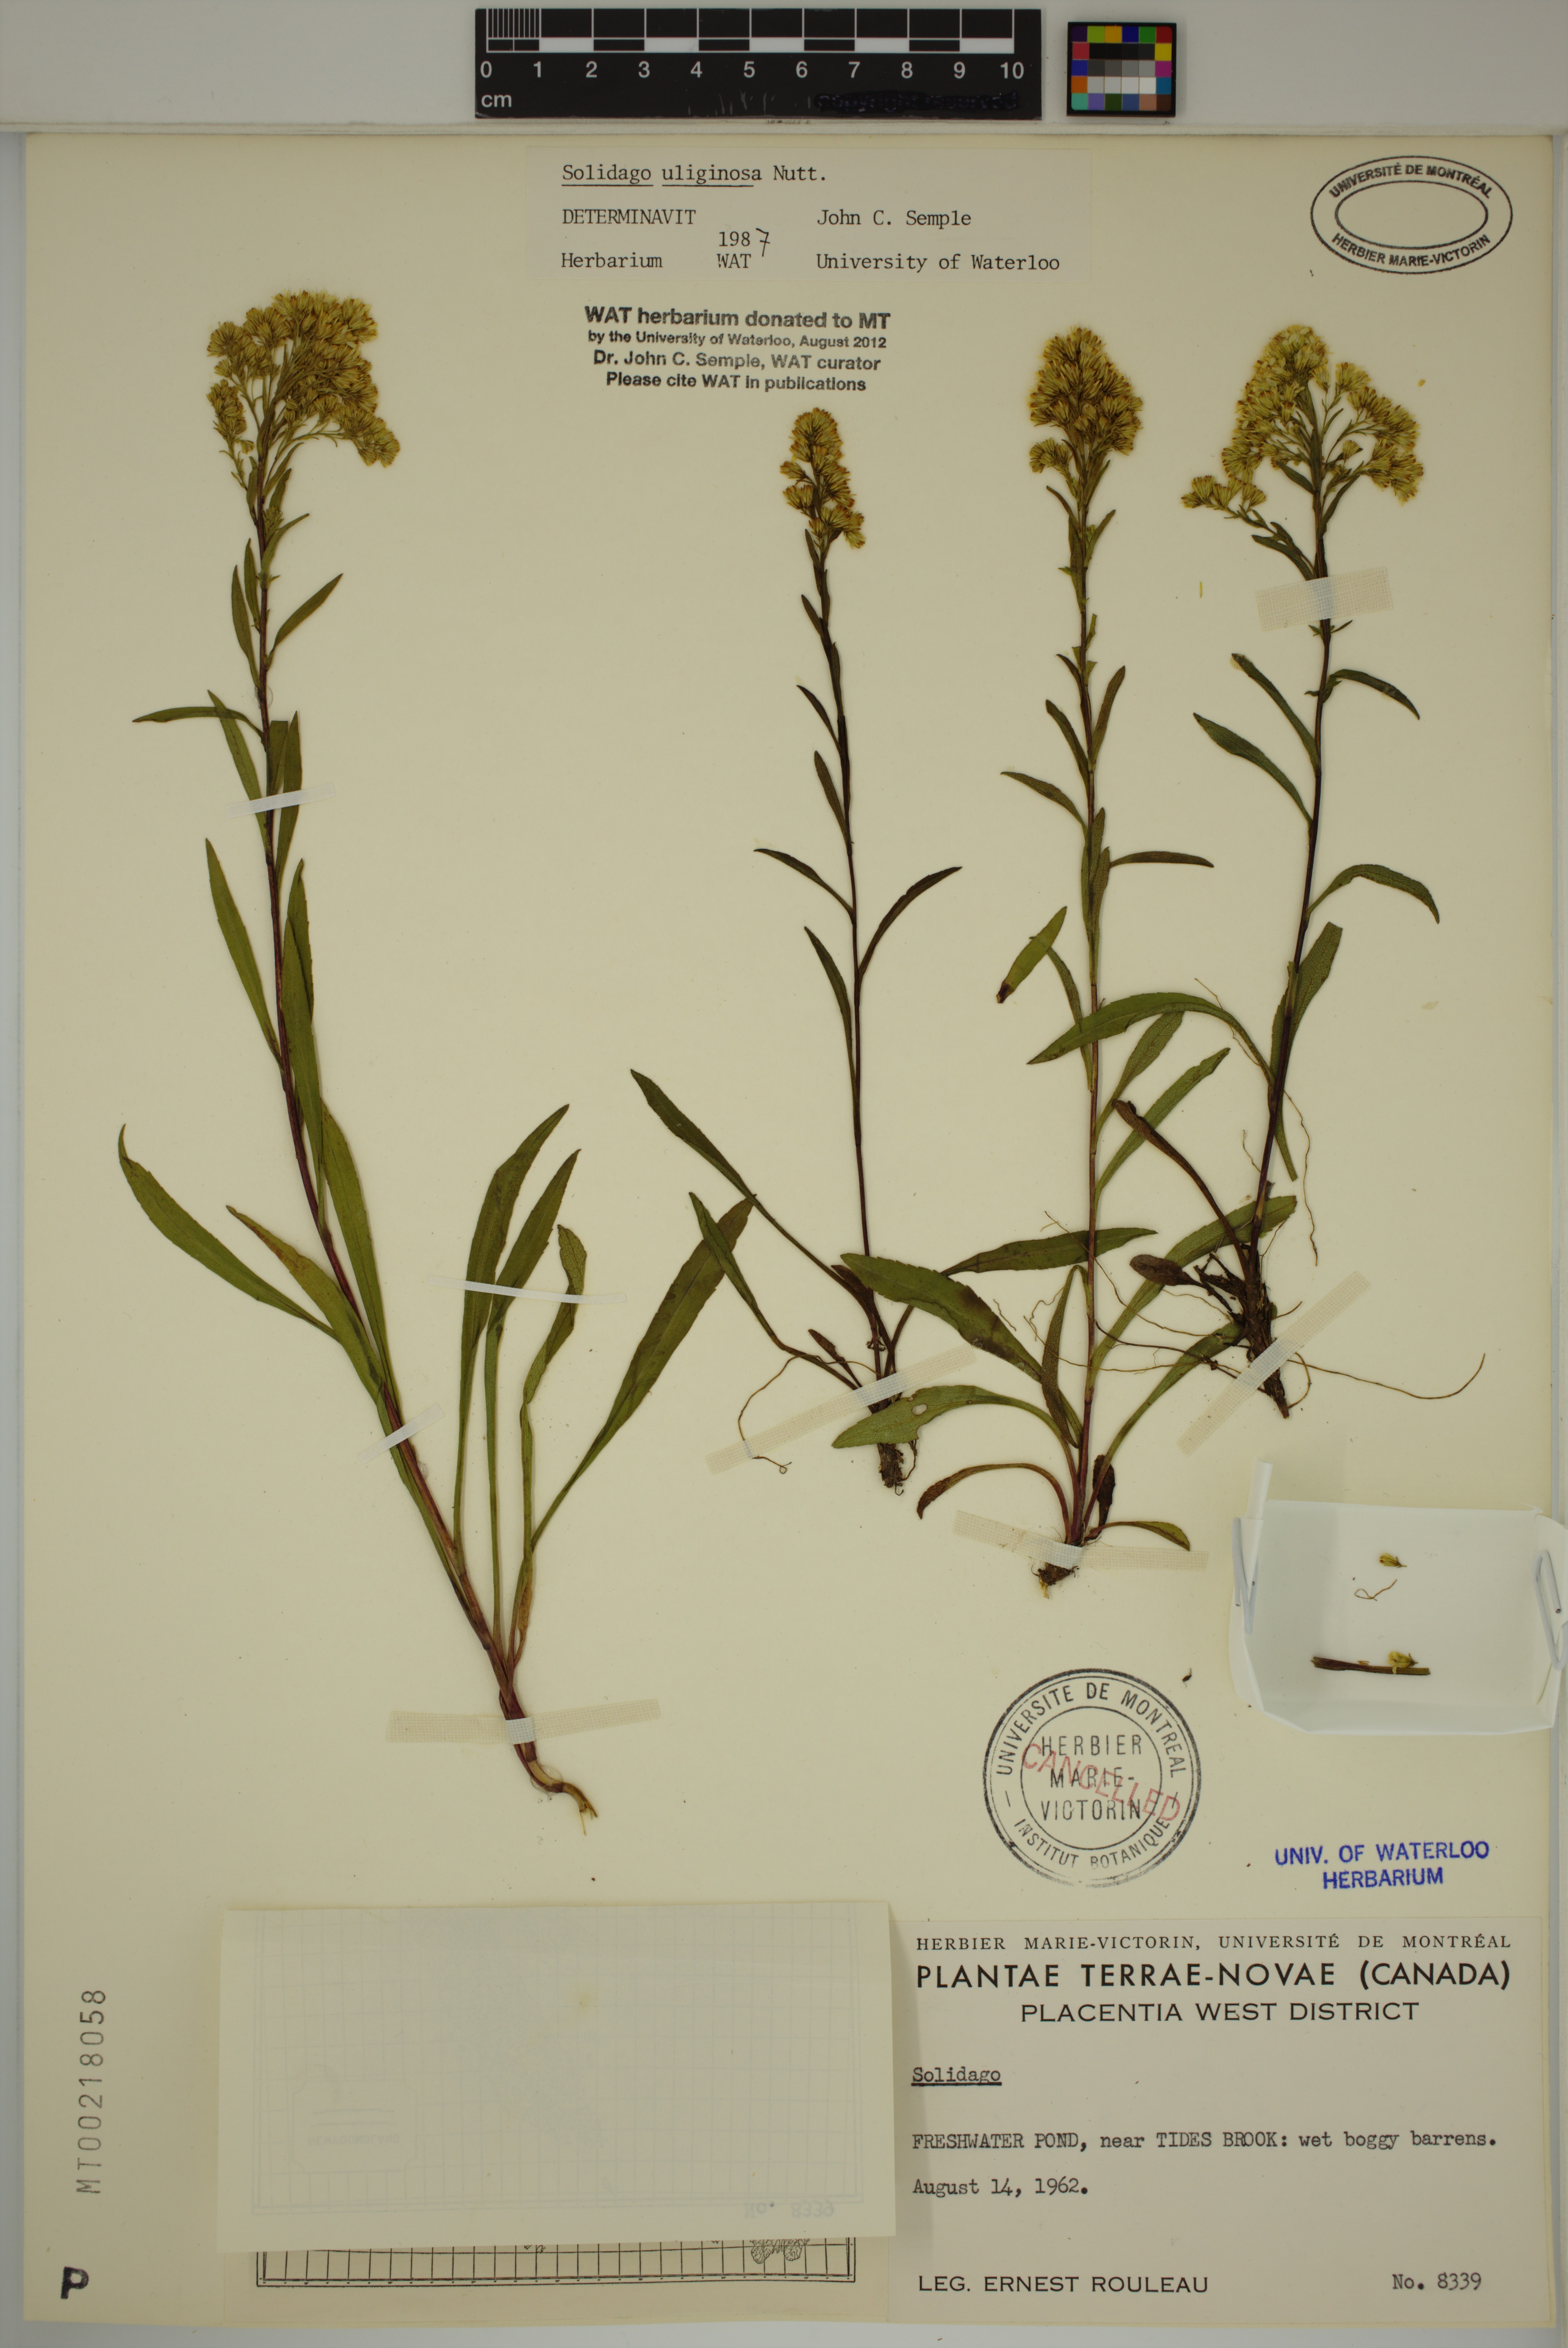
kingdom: Plantae
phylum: Tracheophyta
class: Magnoliopsida
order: Asterales
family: Asteraceae
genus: Solidago
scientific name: Solidago uliginosa
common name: Bog goldenrod
